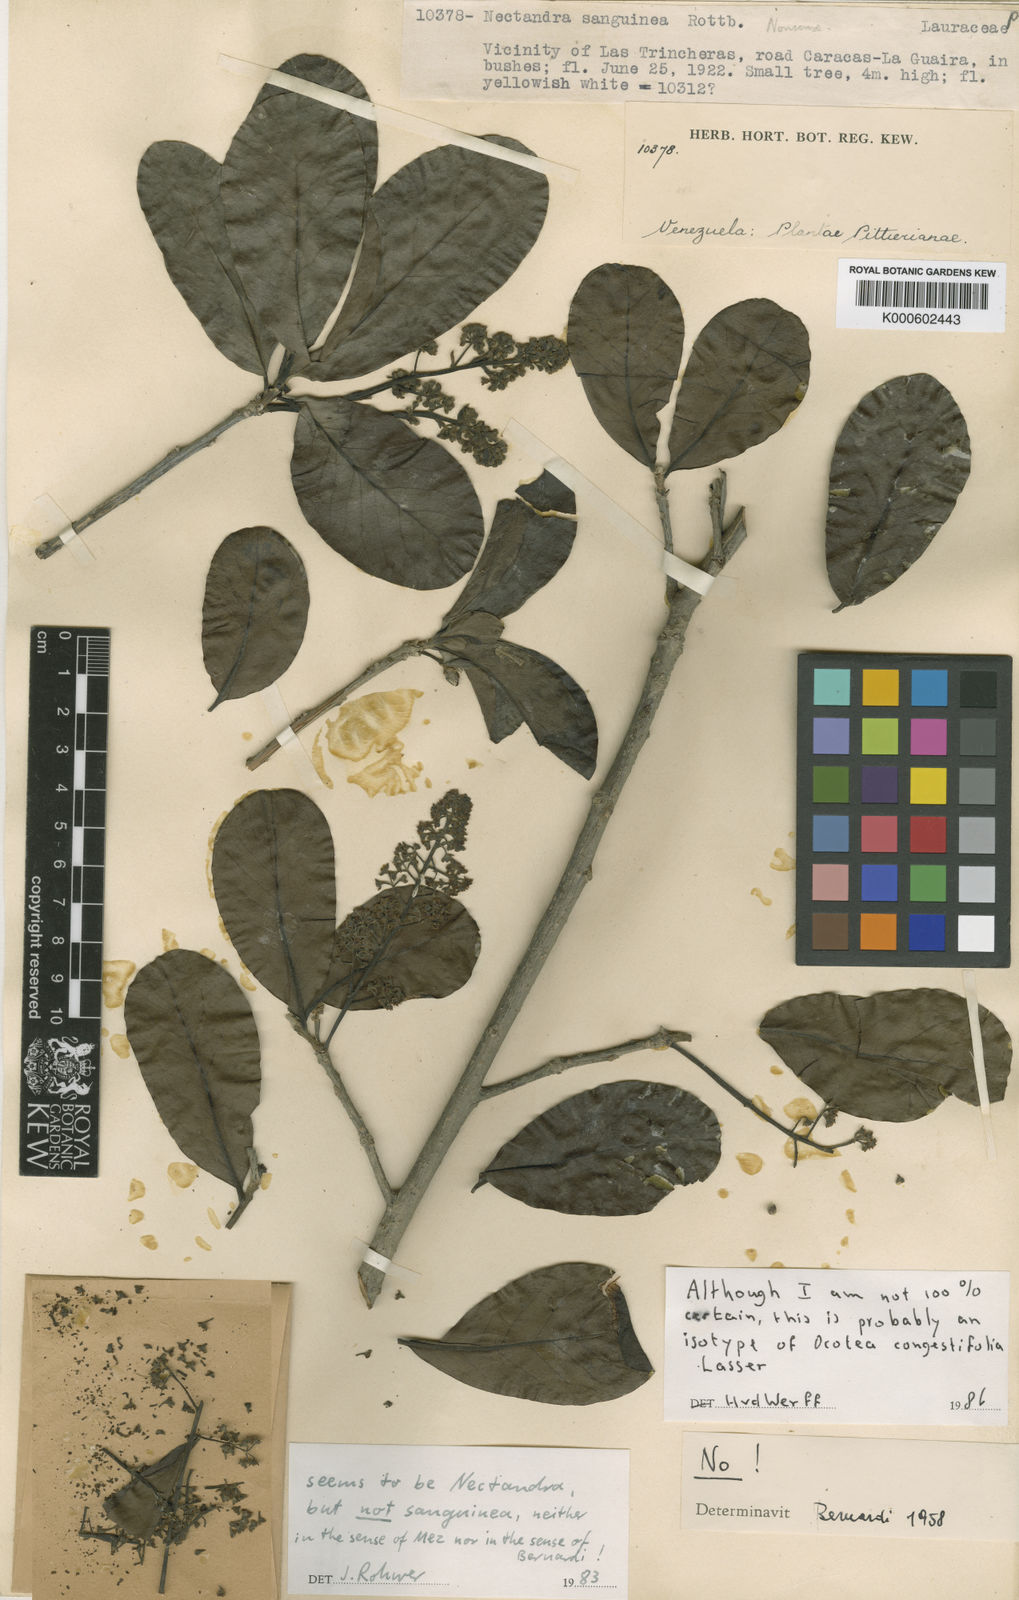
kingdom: Plantae
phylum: Tracheophyta
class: Magnoliopsida
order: Laurales
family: Lauraceae
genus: Ocotea
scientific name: Ocotea congestifolia
